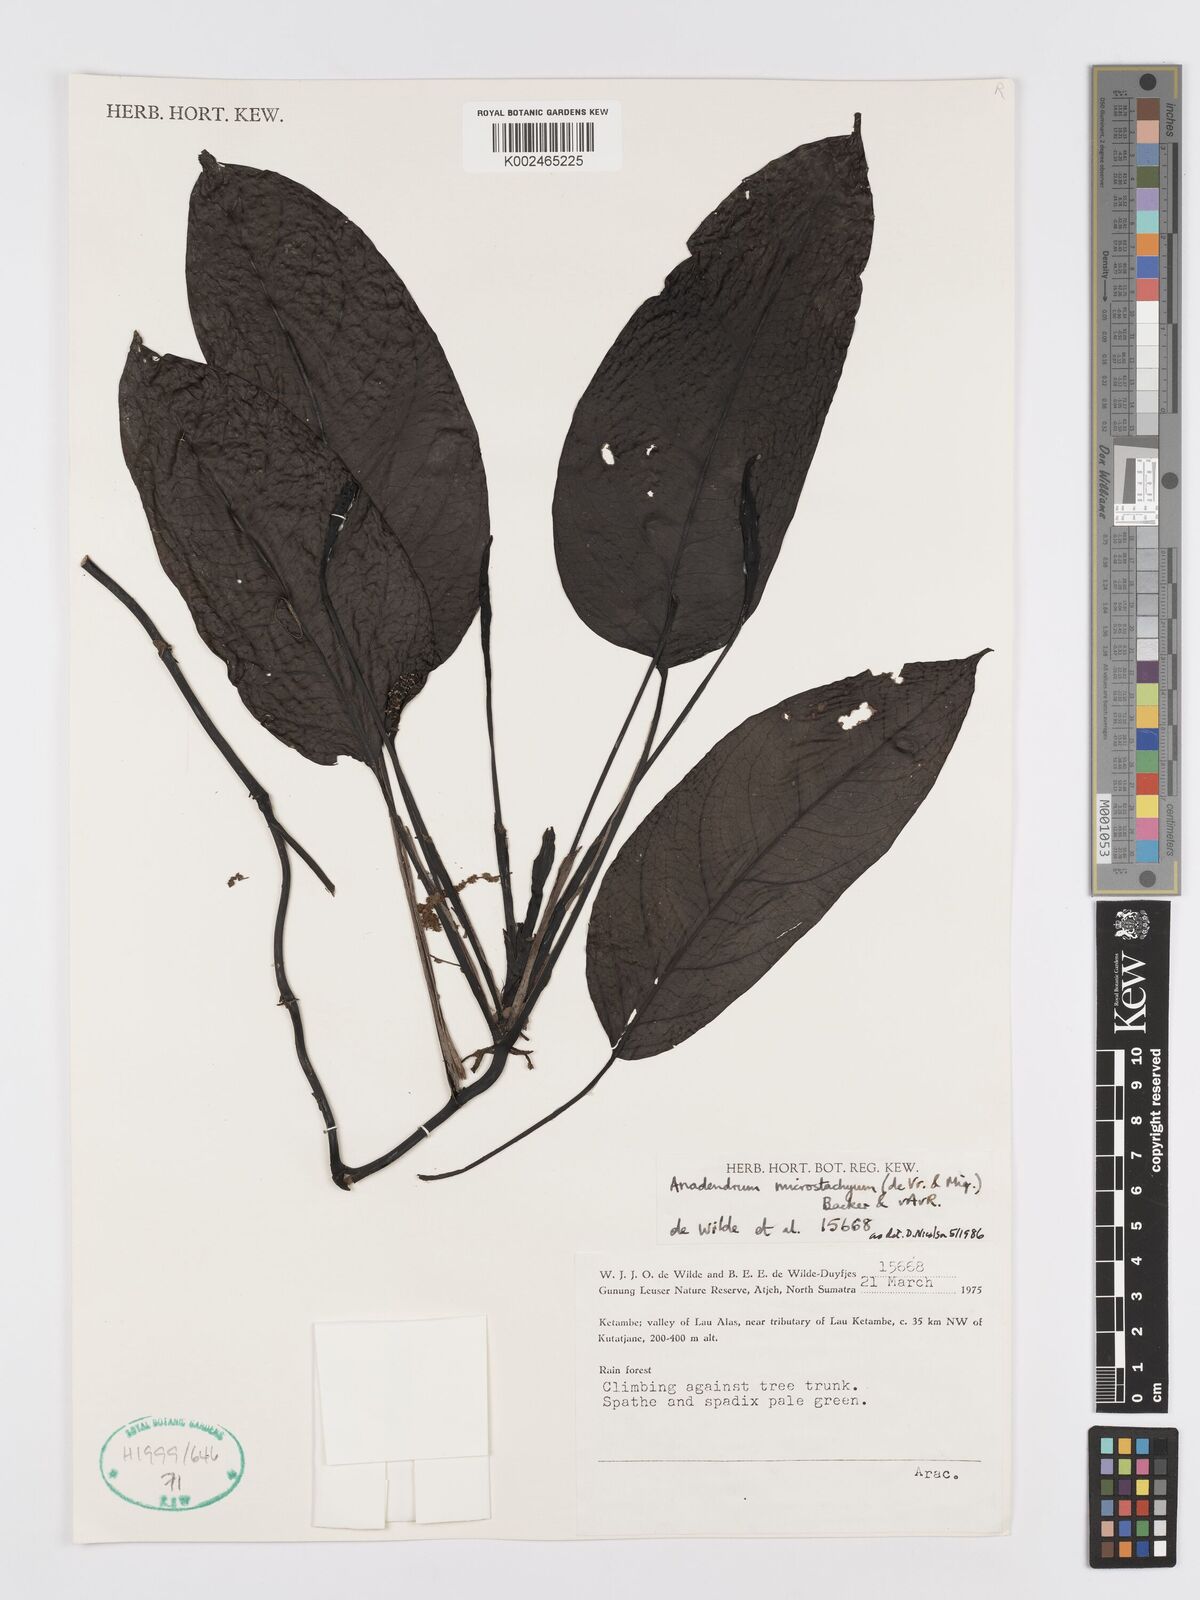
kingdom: Plantae
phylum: Tracheophyta
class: Liliopsida
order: Alismatales
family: Araceae
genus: Anadendrum
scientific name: Anadendrum microstachyum
